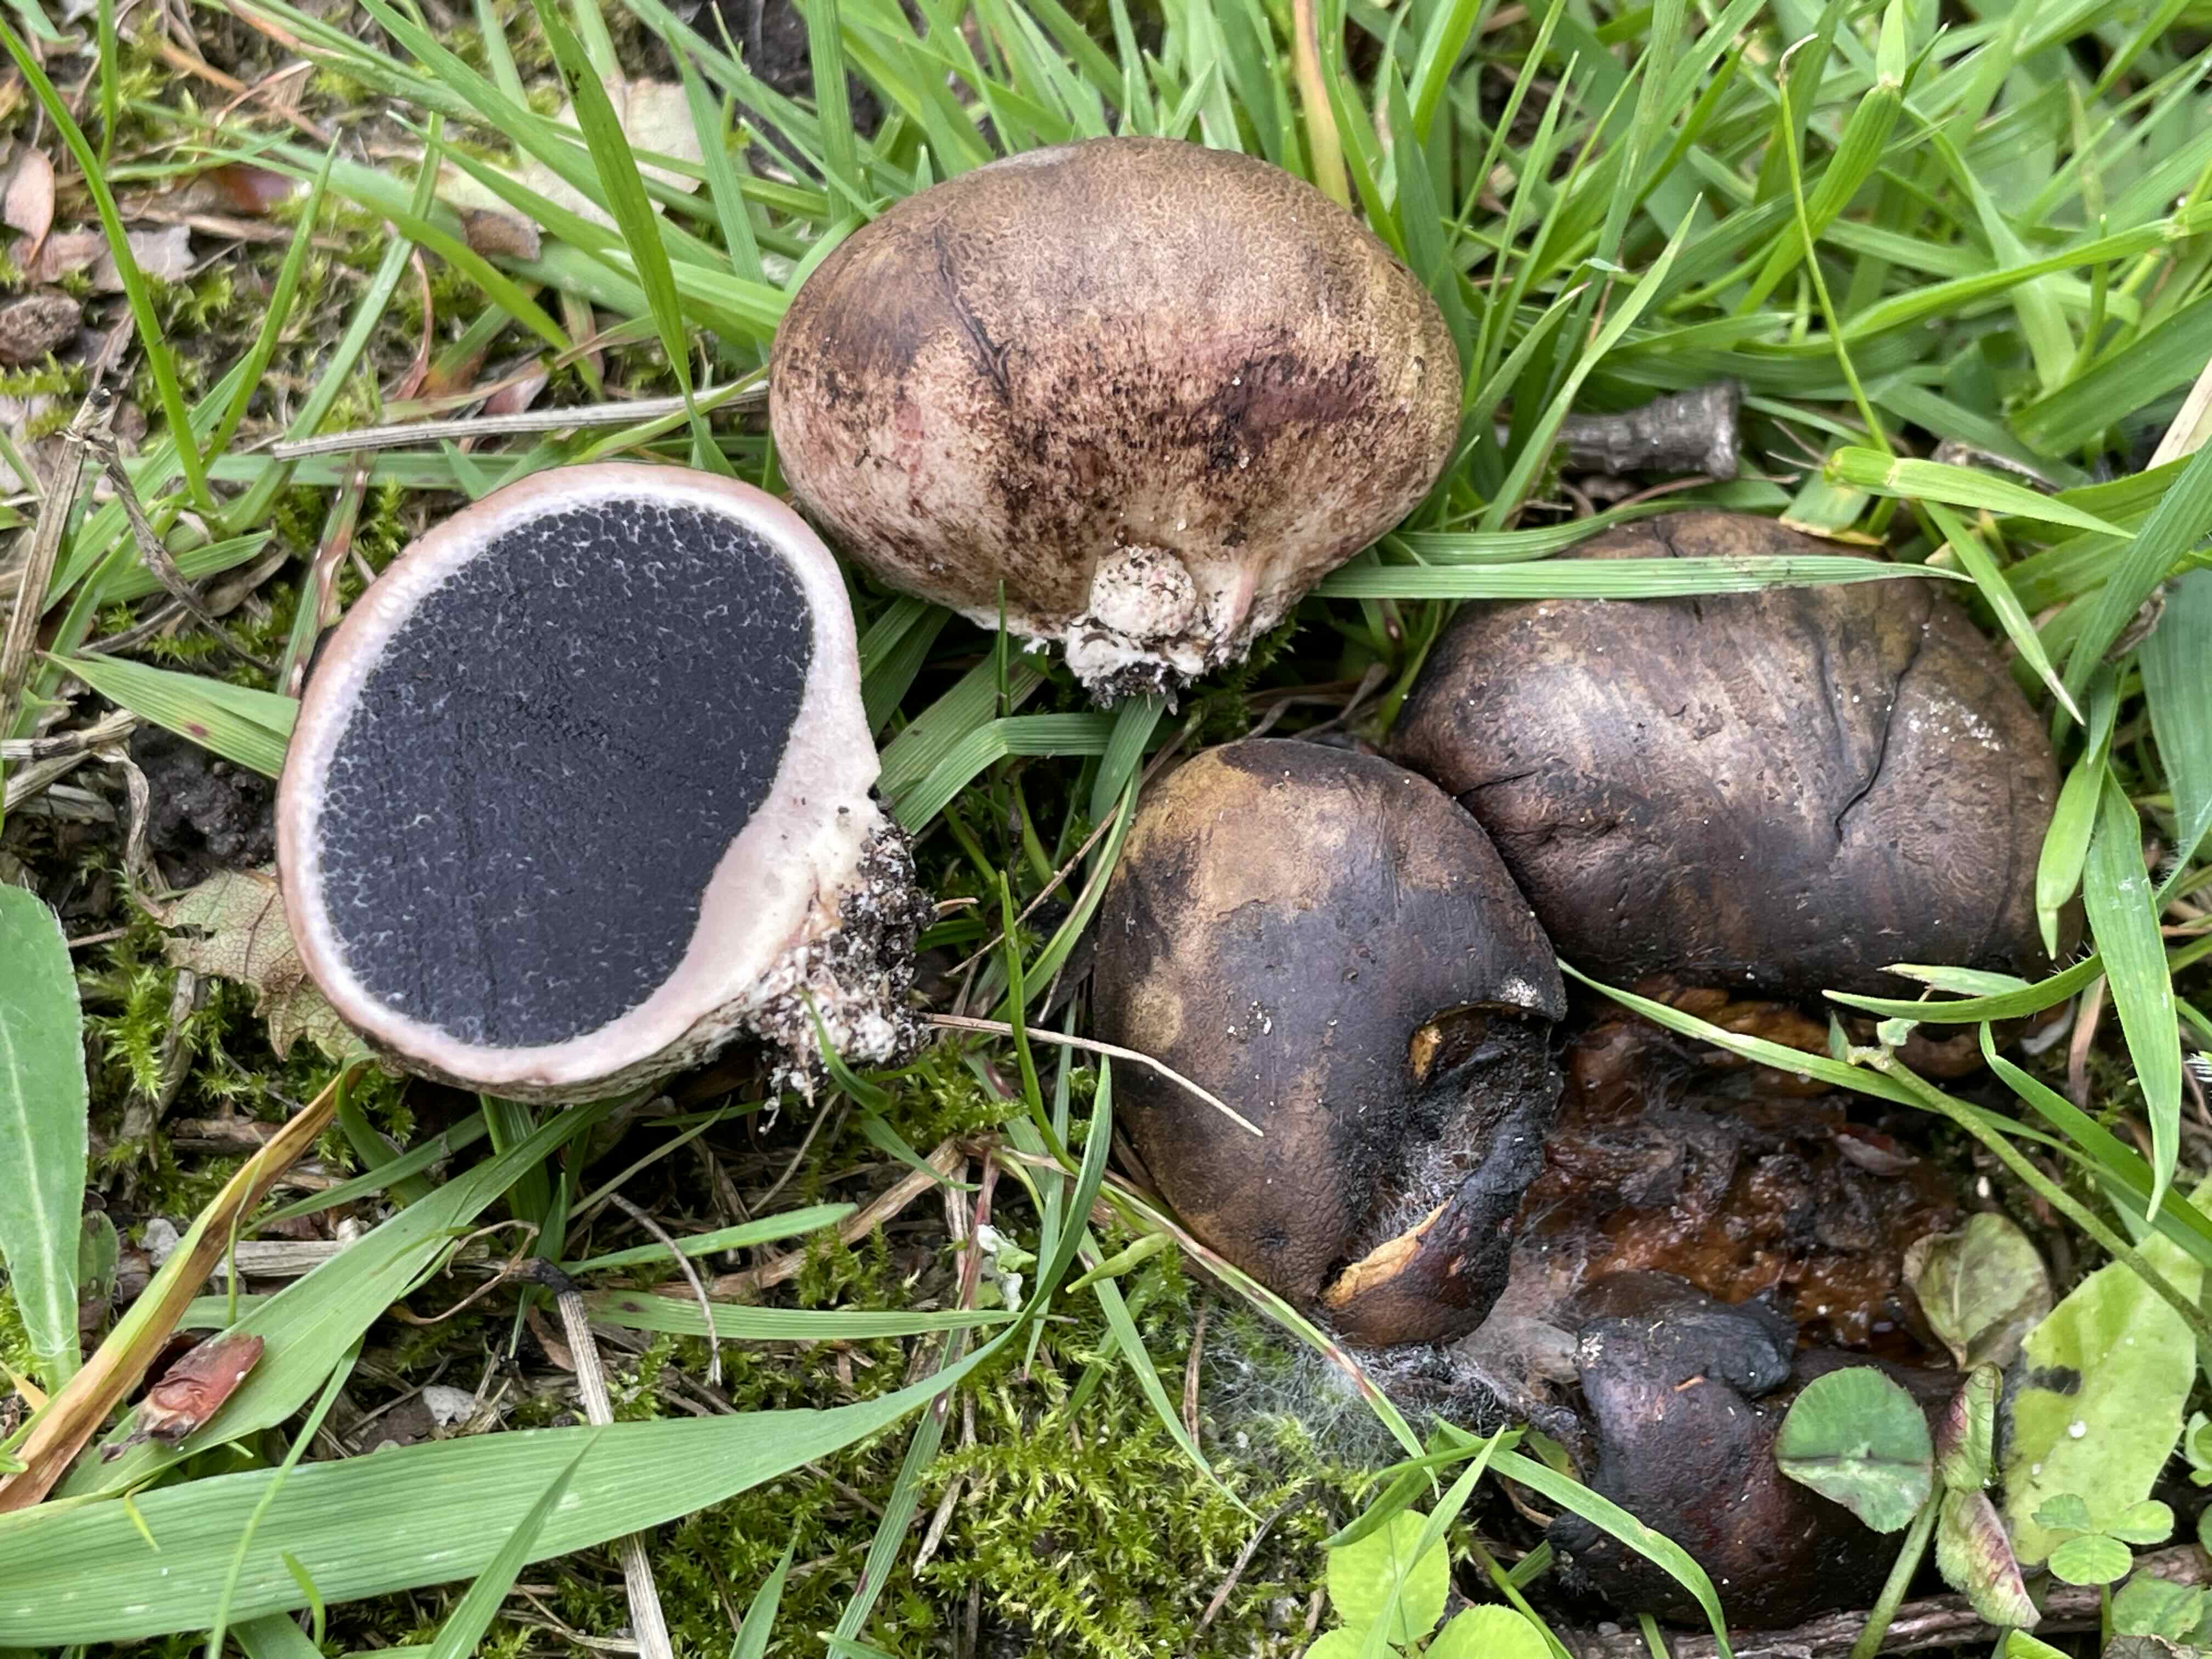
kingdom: Fungi
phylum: Basidiomycota
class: Agaricomycetes
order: Boletales
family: Sclerodermataceae
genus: Scleroderma
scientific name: Scleroderma bovista
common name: bovist-bruskbold
